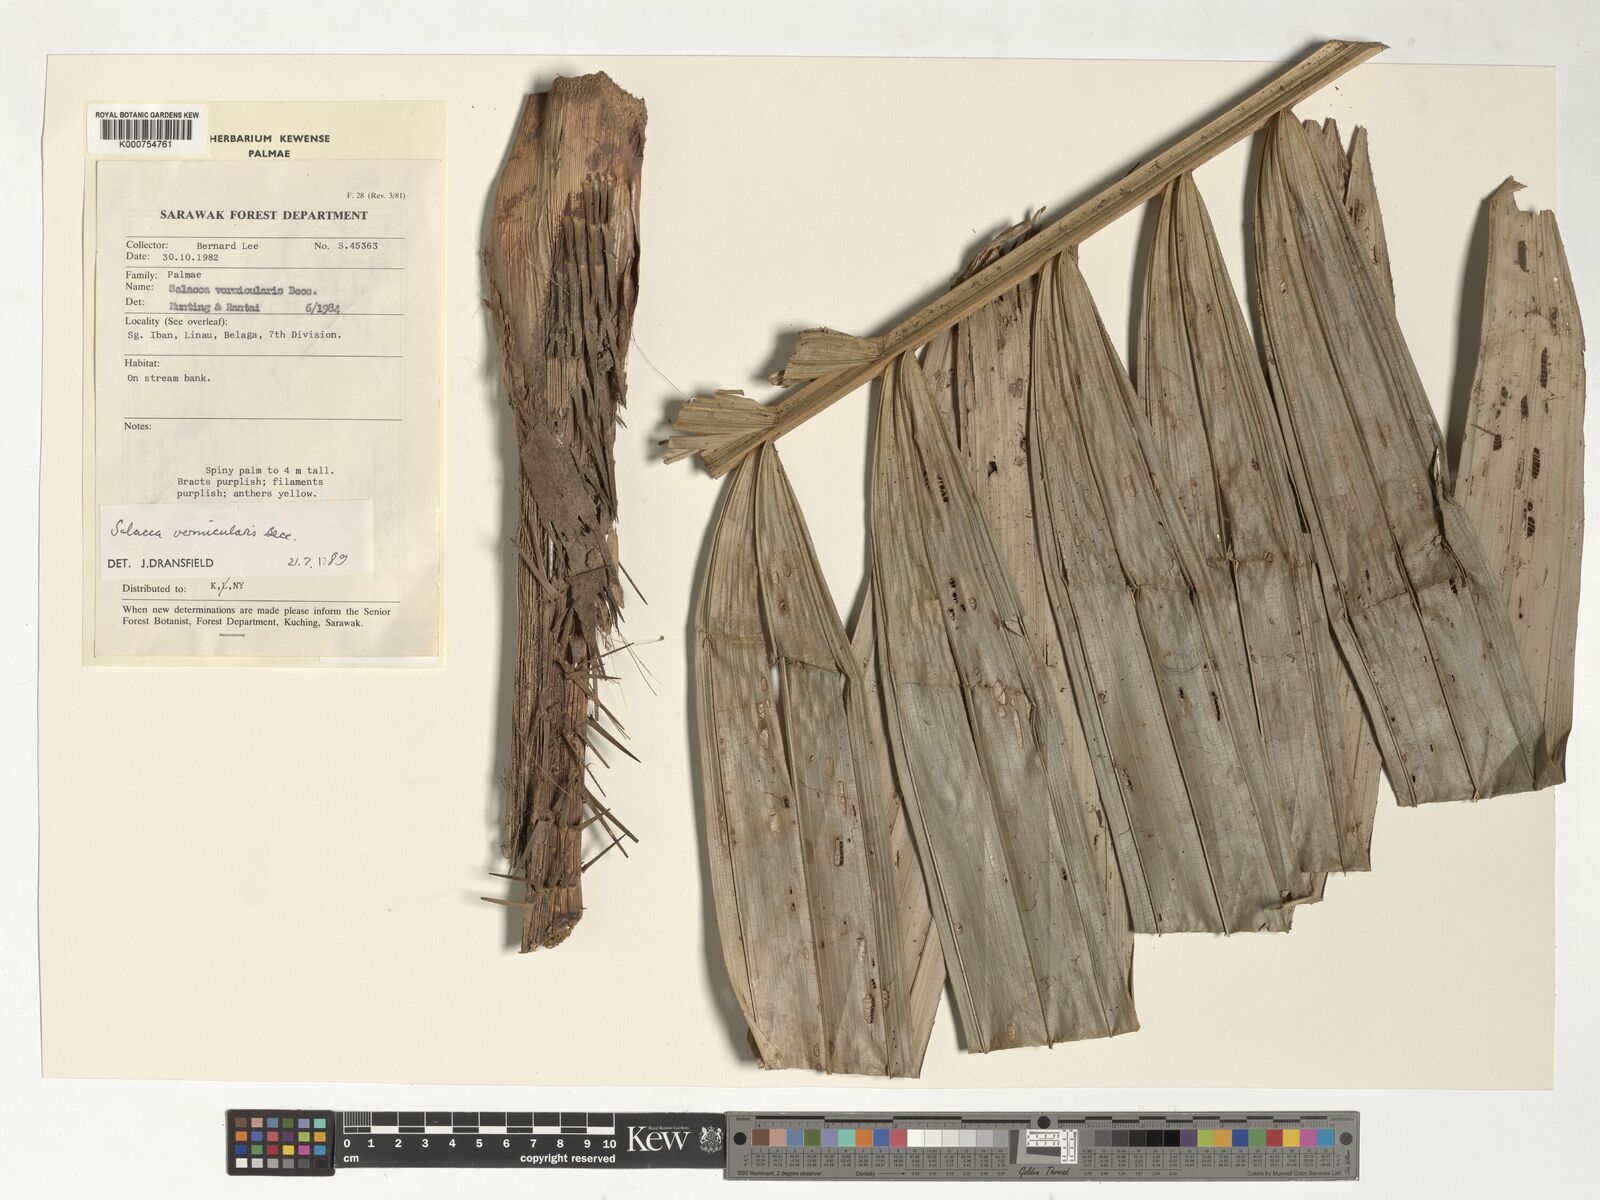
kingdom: Plantae
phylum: Tracheophyta
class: Liliopsida
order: Arecales
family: Arecaceae
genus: Salacca
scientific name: Salacca vermicularis
